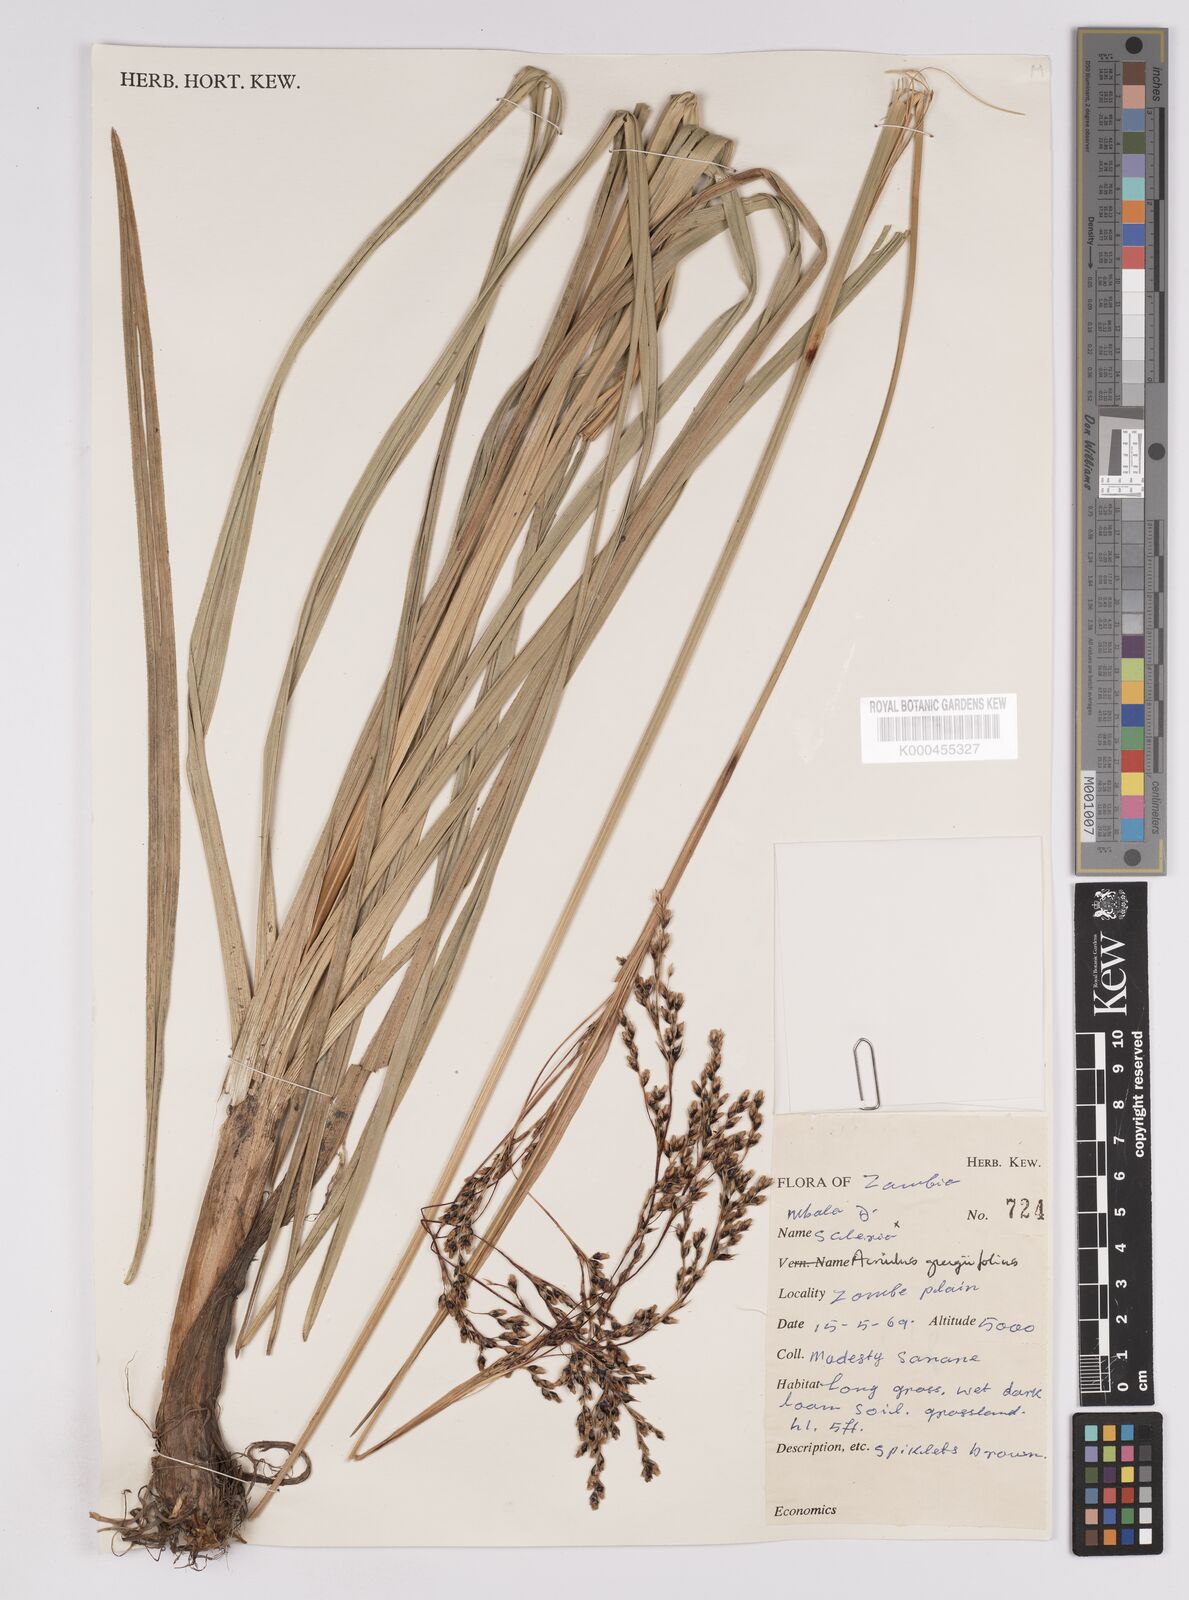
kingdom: Plantae
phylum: Tracheophyta
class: Liliopsida
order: Poales
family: Cyperaceae
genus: Scleria
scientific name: Scleria greigiifolia
